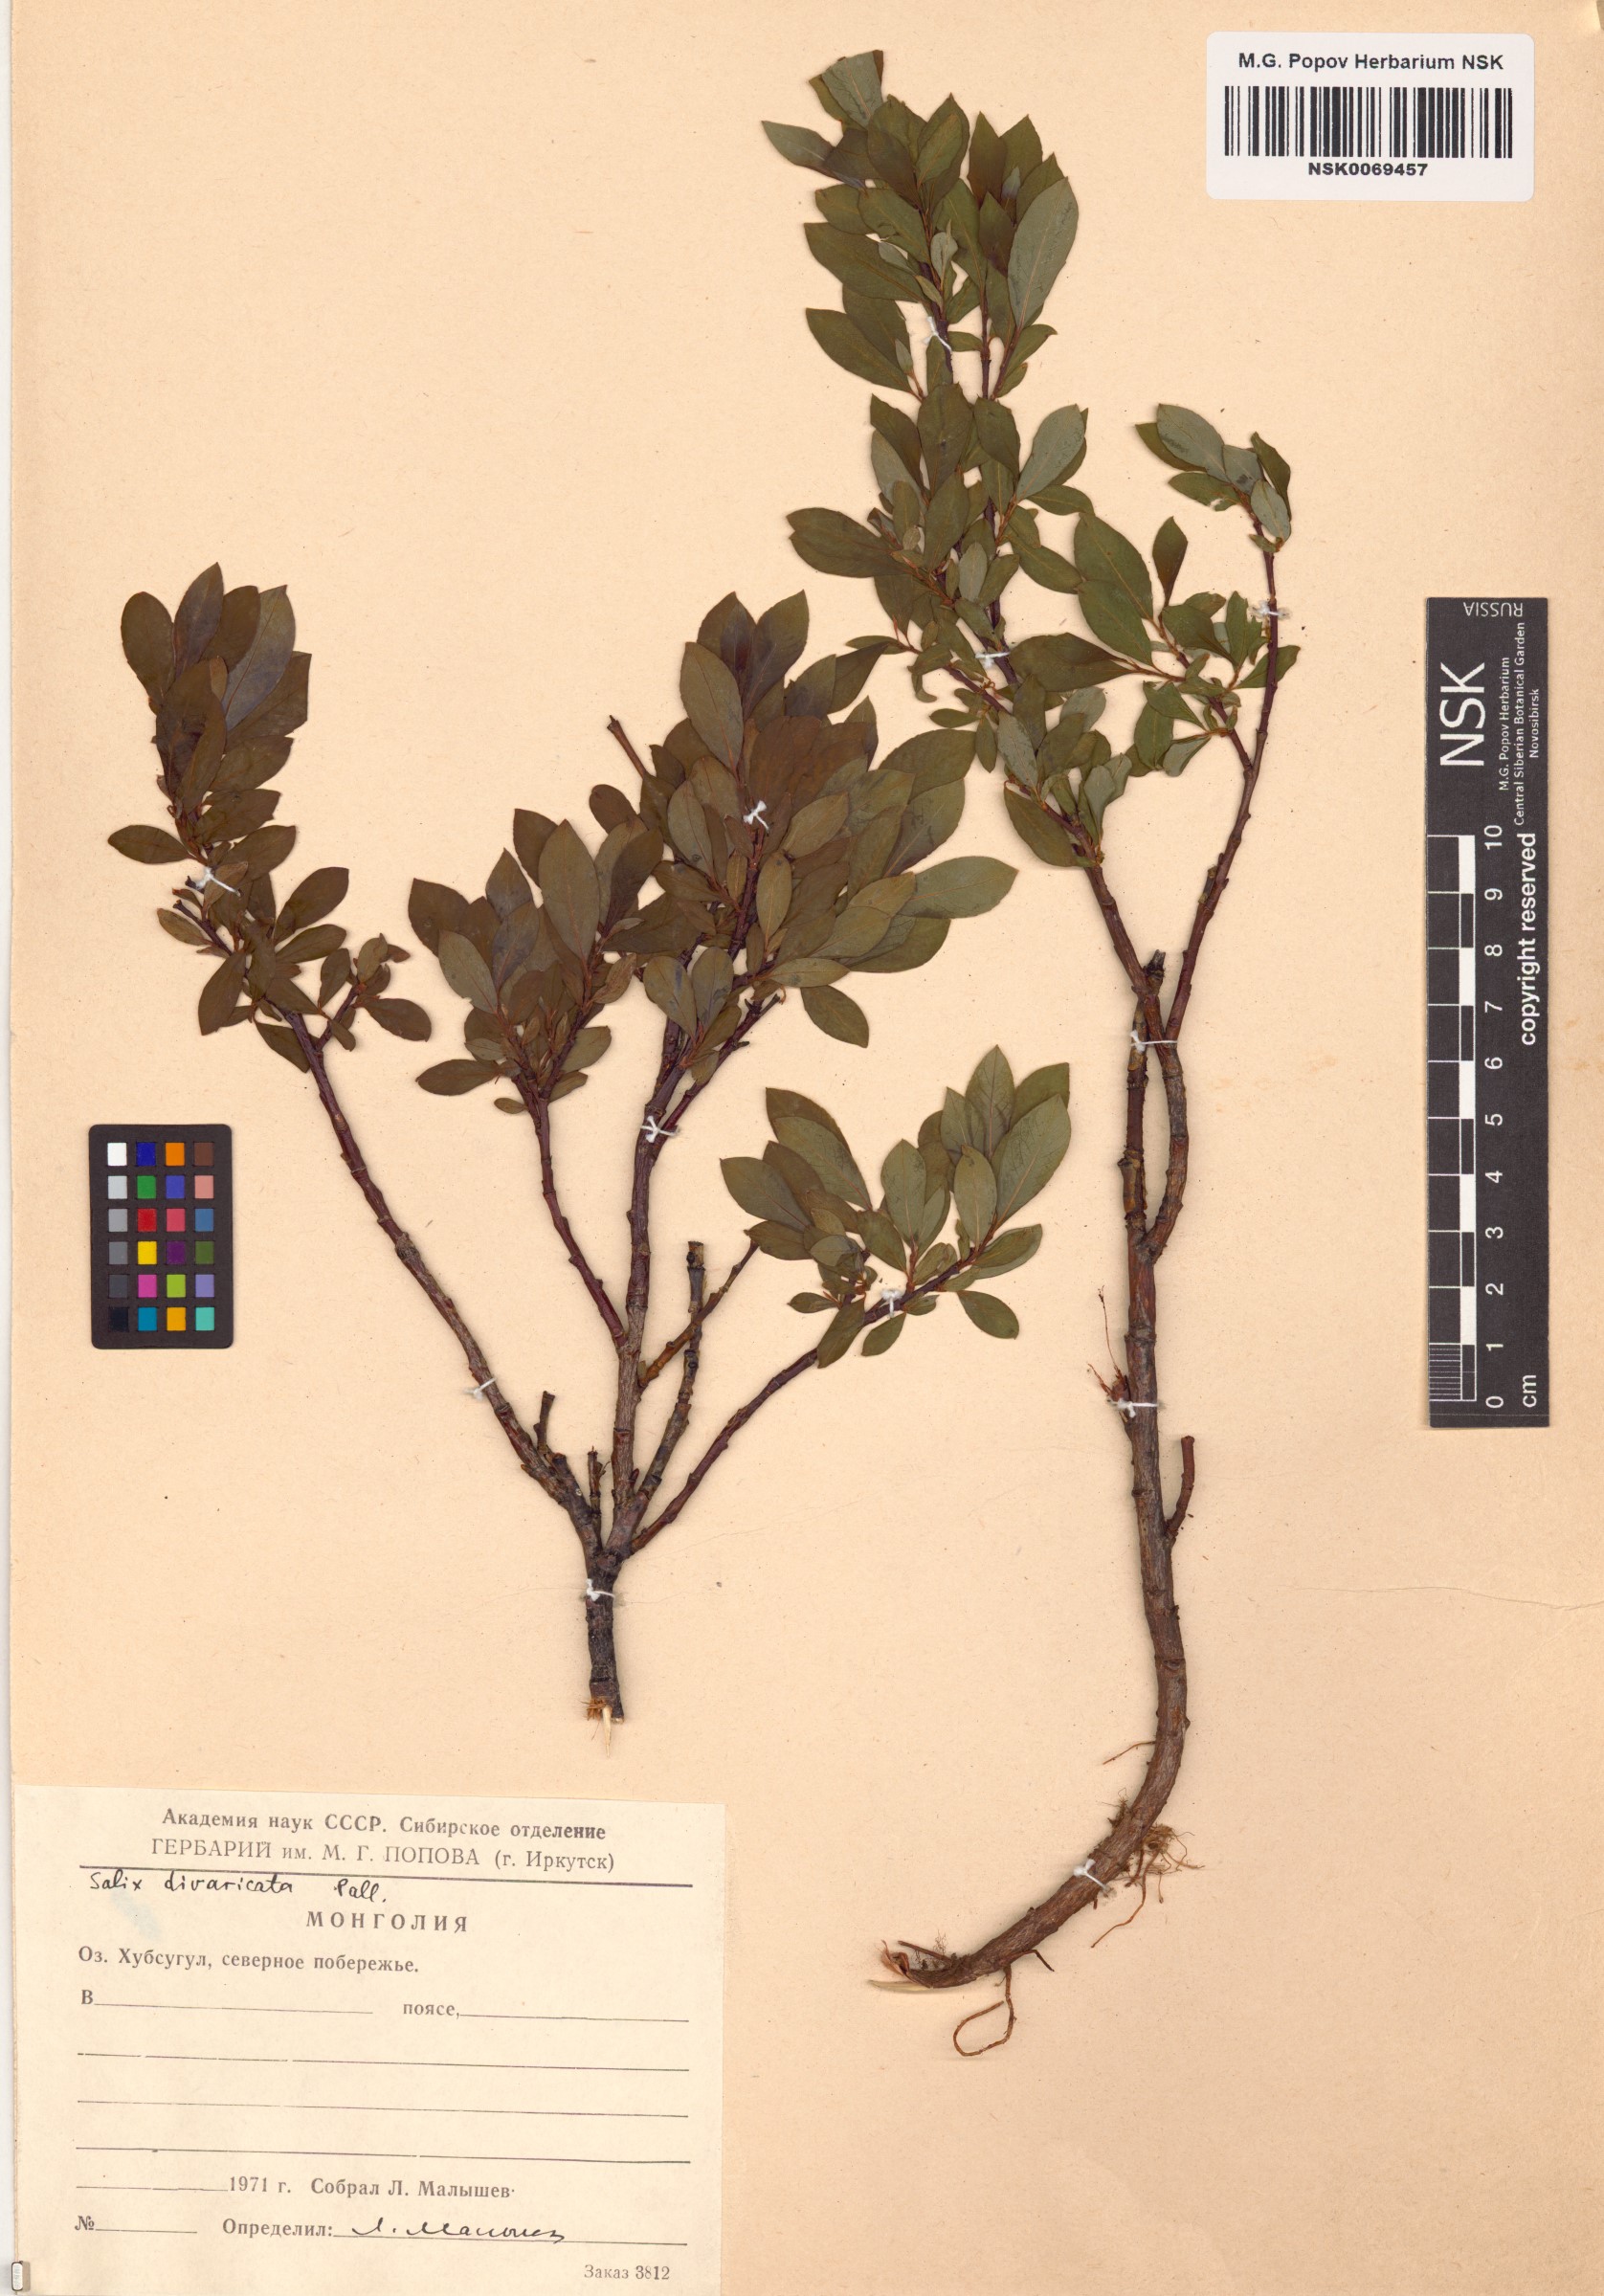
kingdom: Plantae
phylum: Tracheophyta
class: Magnoliopsida
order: Malpighiales
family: Salicaceae
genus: Salix
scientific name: Salix divaricata
